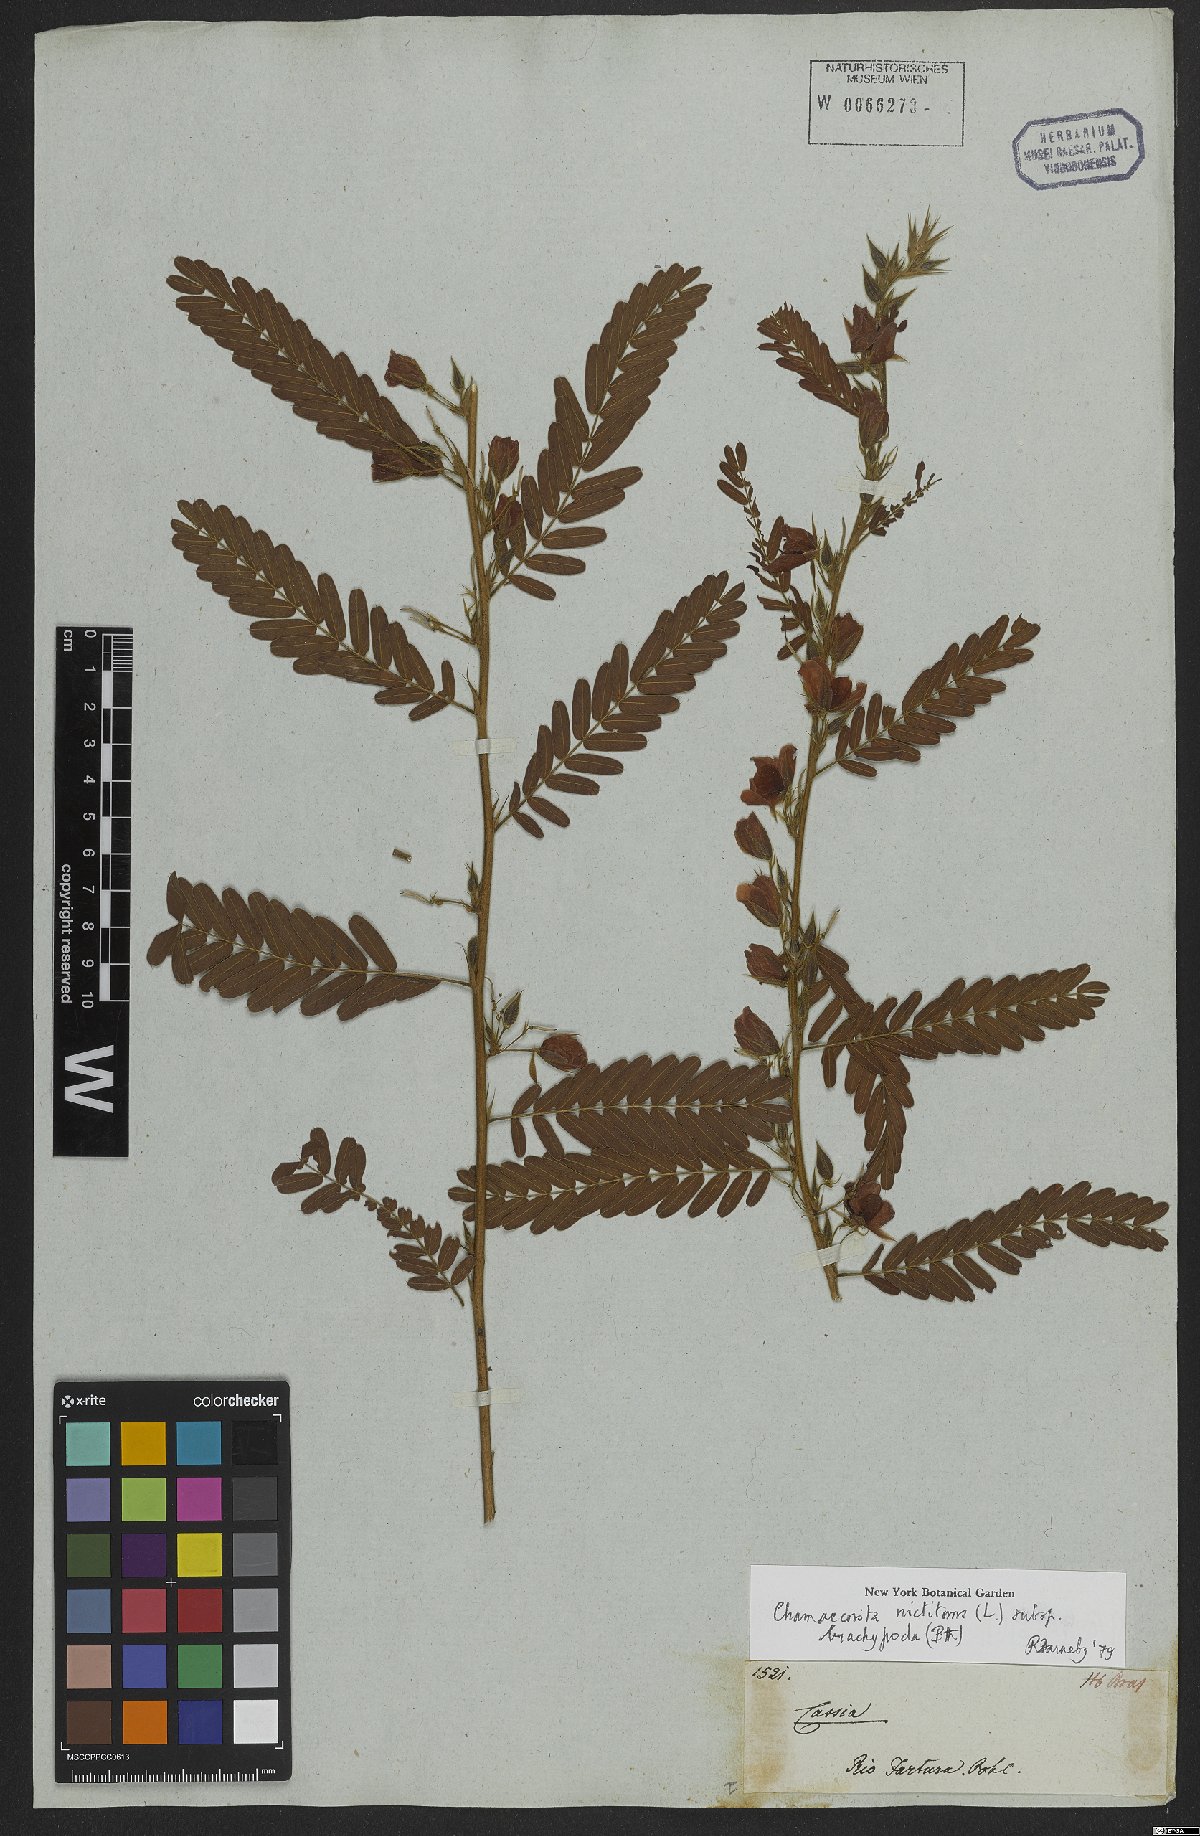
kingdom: Plantae
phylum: Tracheophyta
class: Magnoliopsida
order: Fabales
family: Fabaceae
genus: Chamaecrista
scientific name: Chamaecrista nictitans
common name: Sensitive cassia
